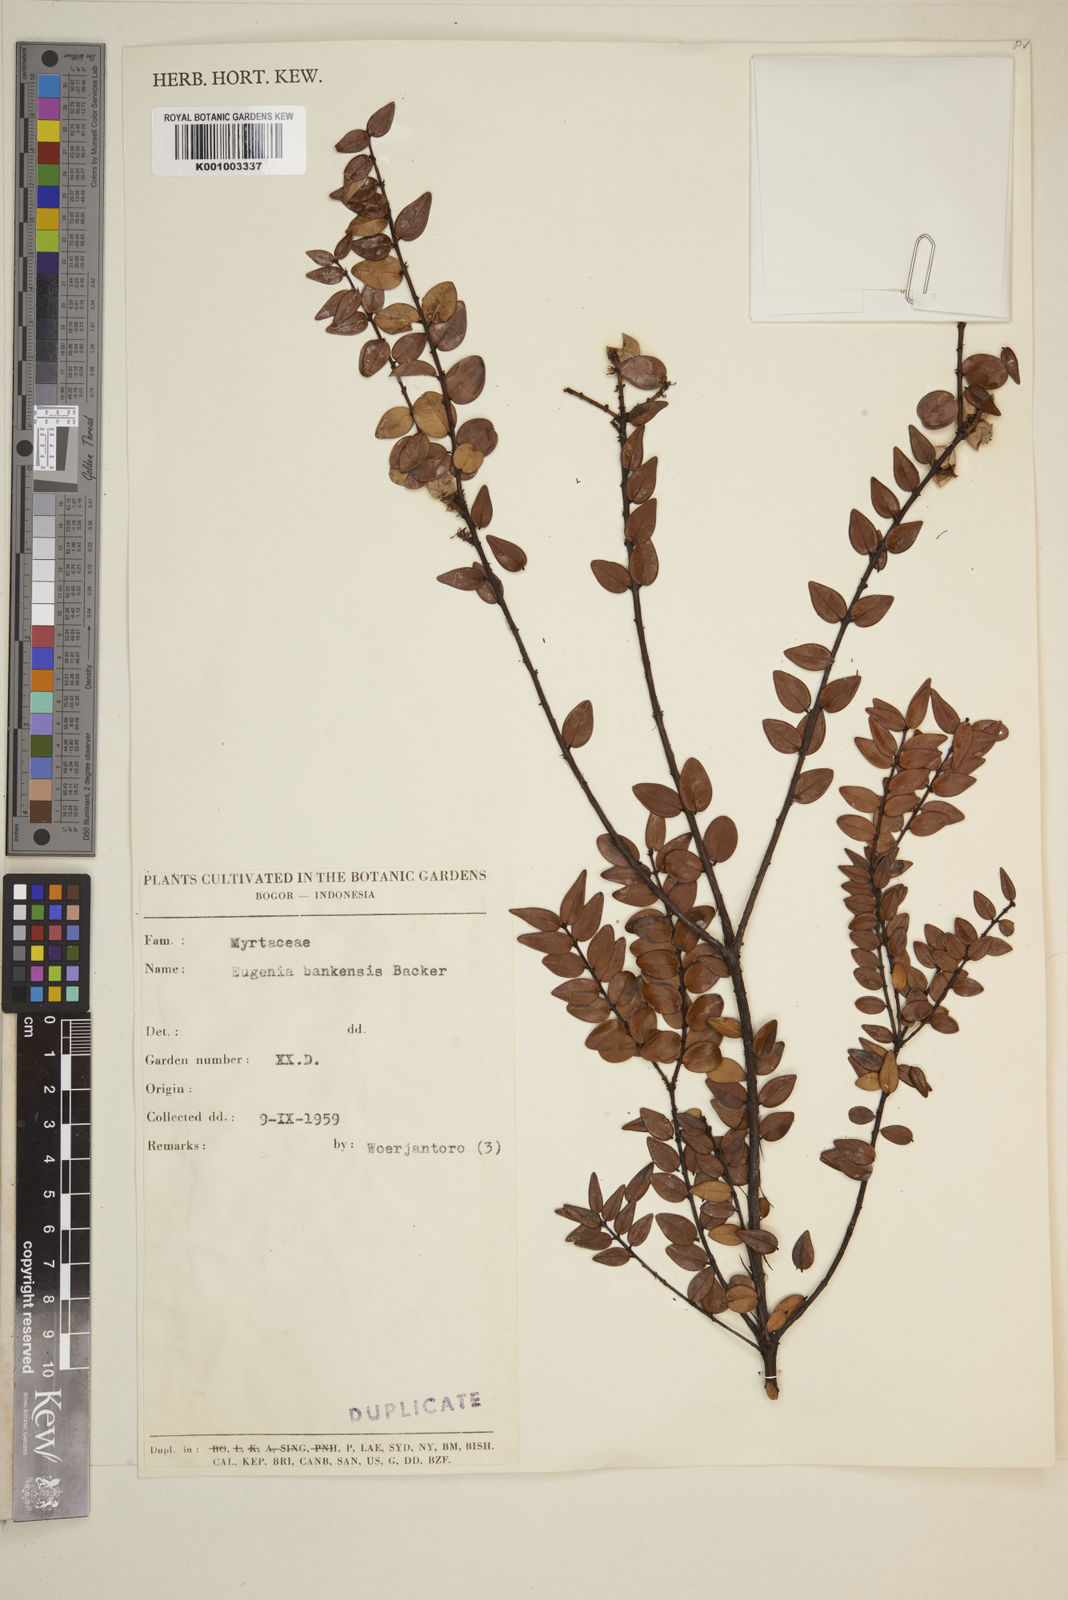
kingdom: Plantae
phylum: Tracheophyta
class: Magnoliopsida
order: Myrtales
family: Myrtaceae
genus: Syzygium
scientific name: Syzygium bankense
